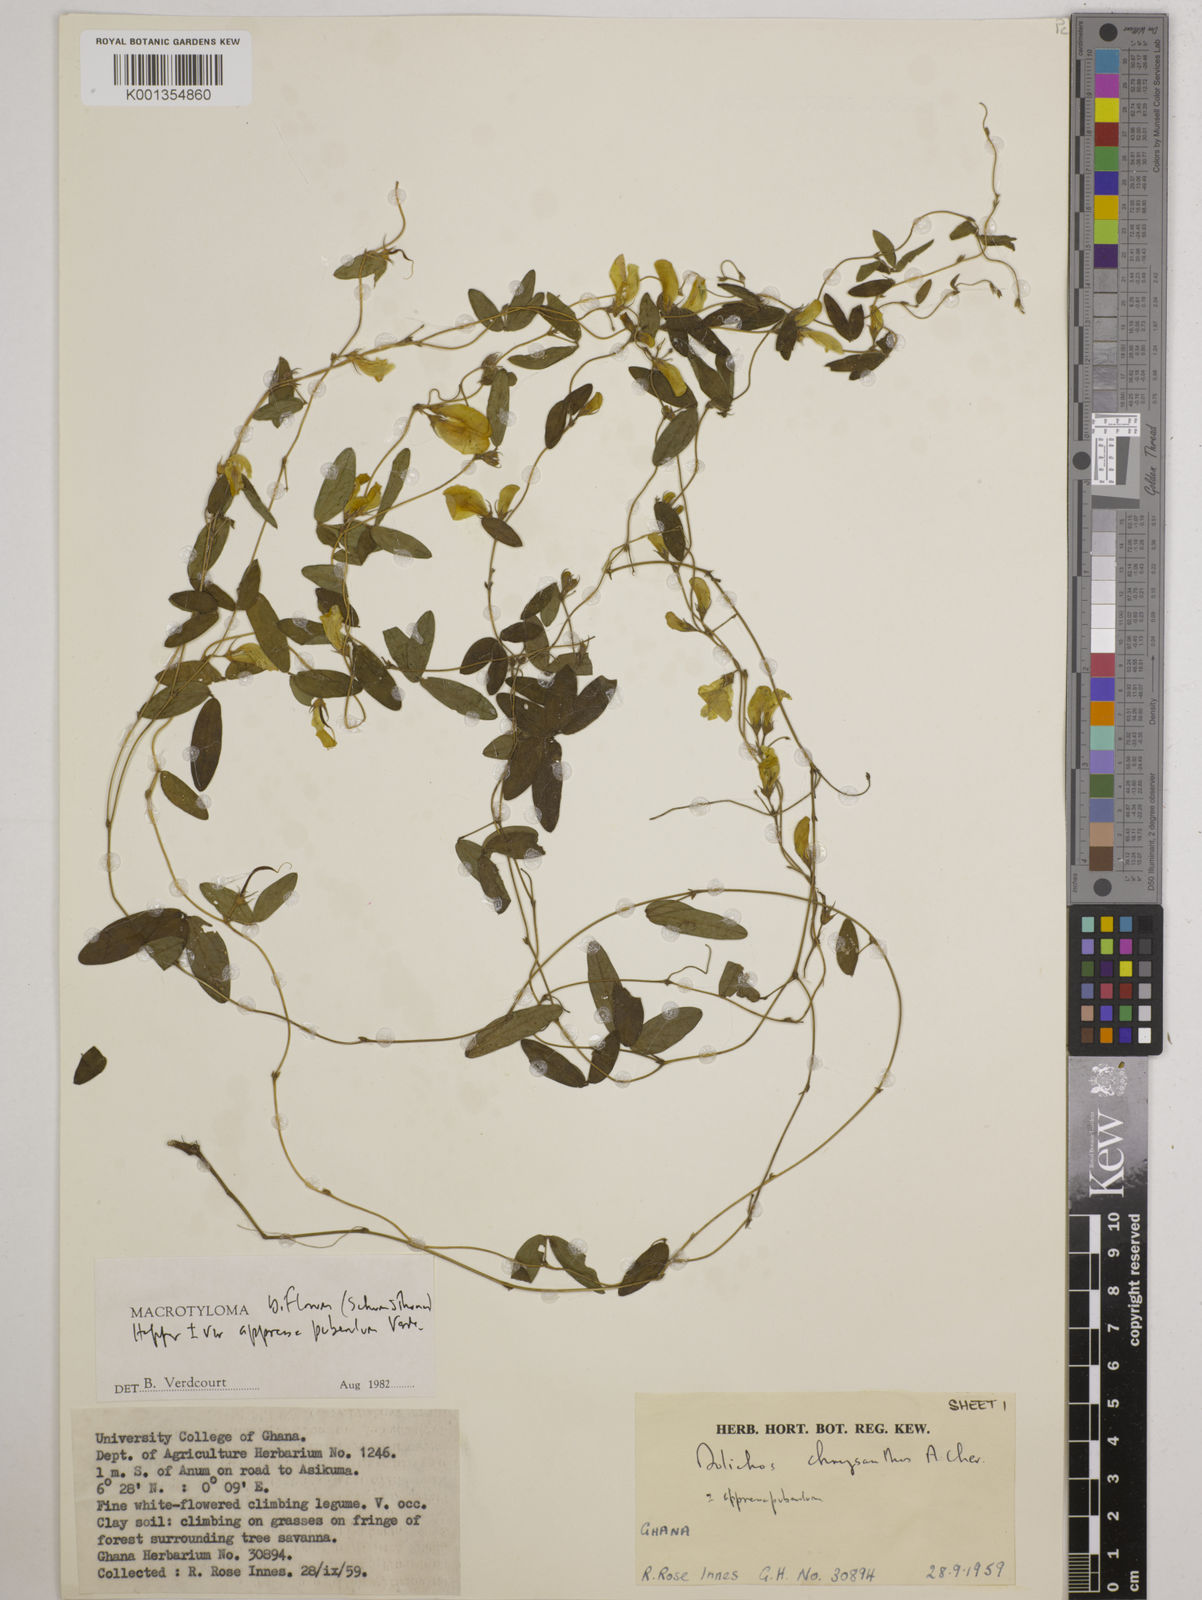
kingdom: Plantae
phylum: Tracheophyta
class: Magnoliopsida
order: Fabales
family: Fabaceae
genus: Macrotyloma
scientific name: Macrotyloma biflorum
